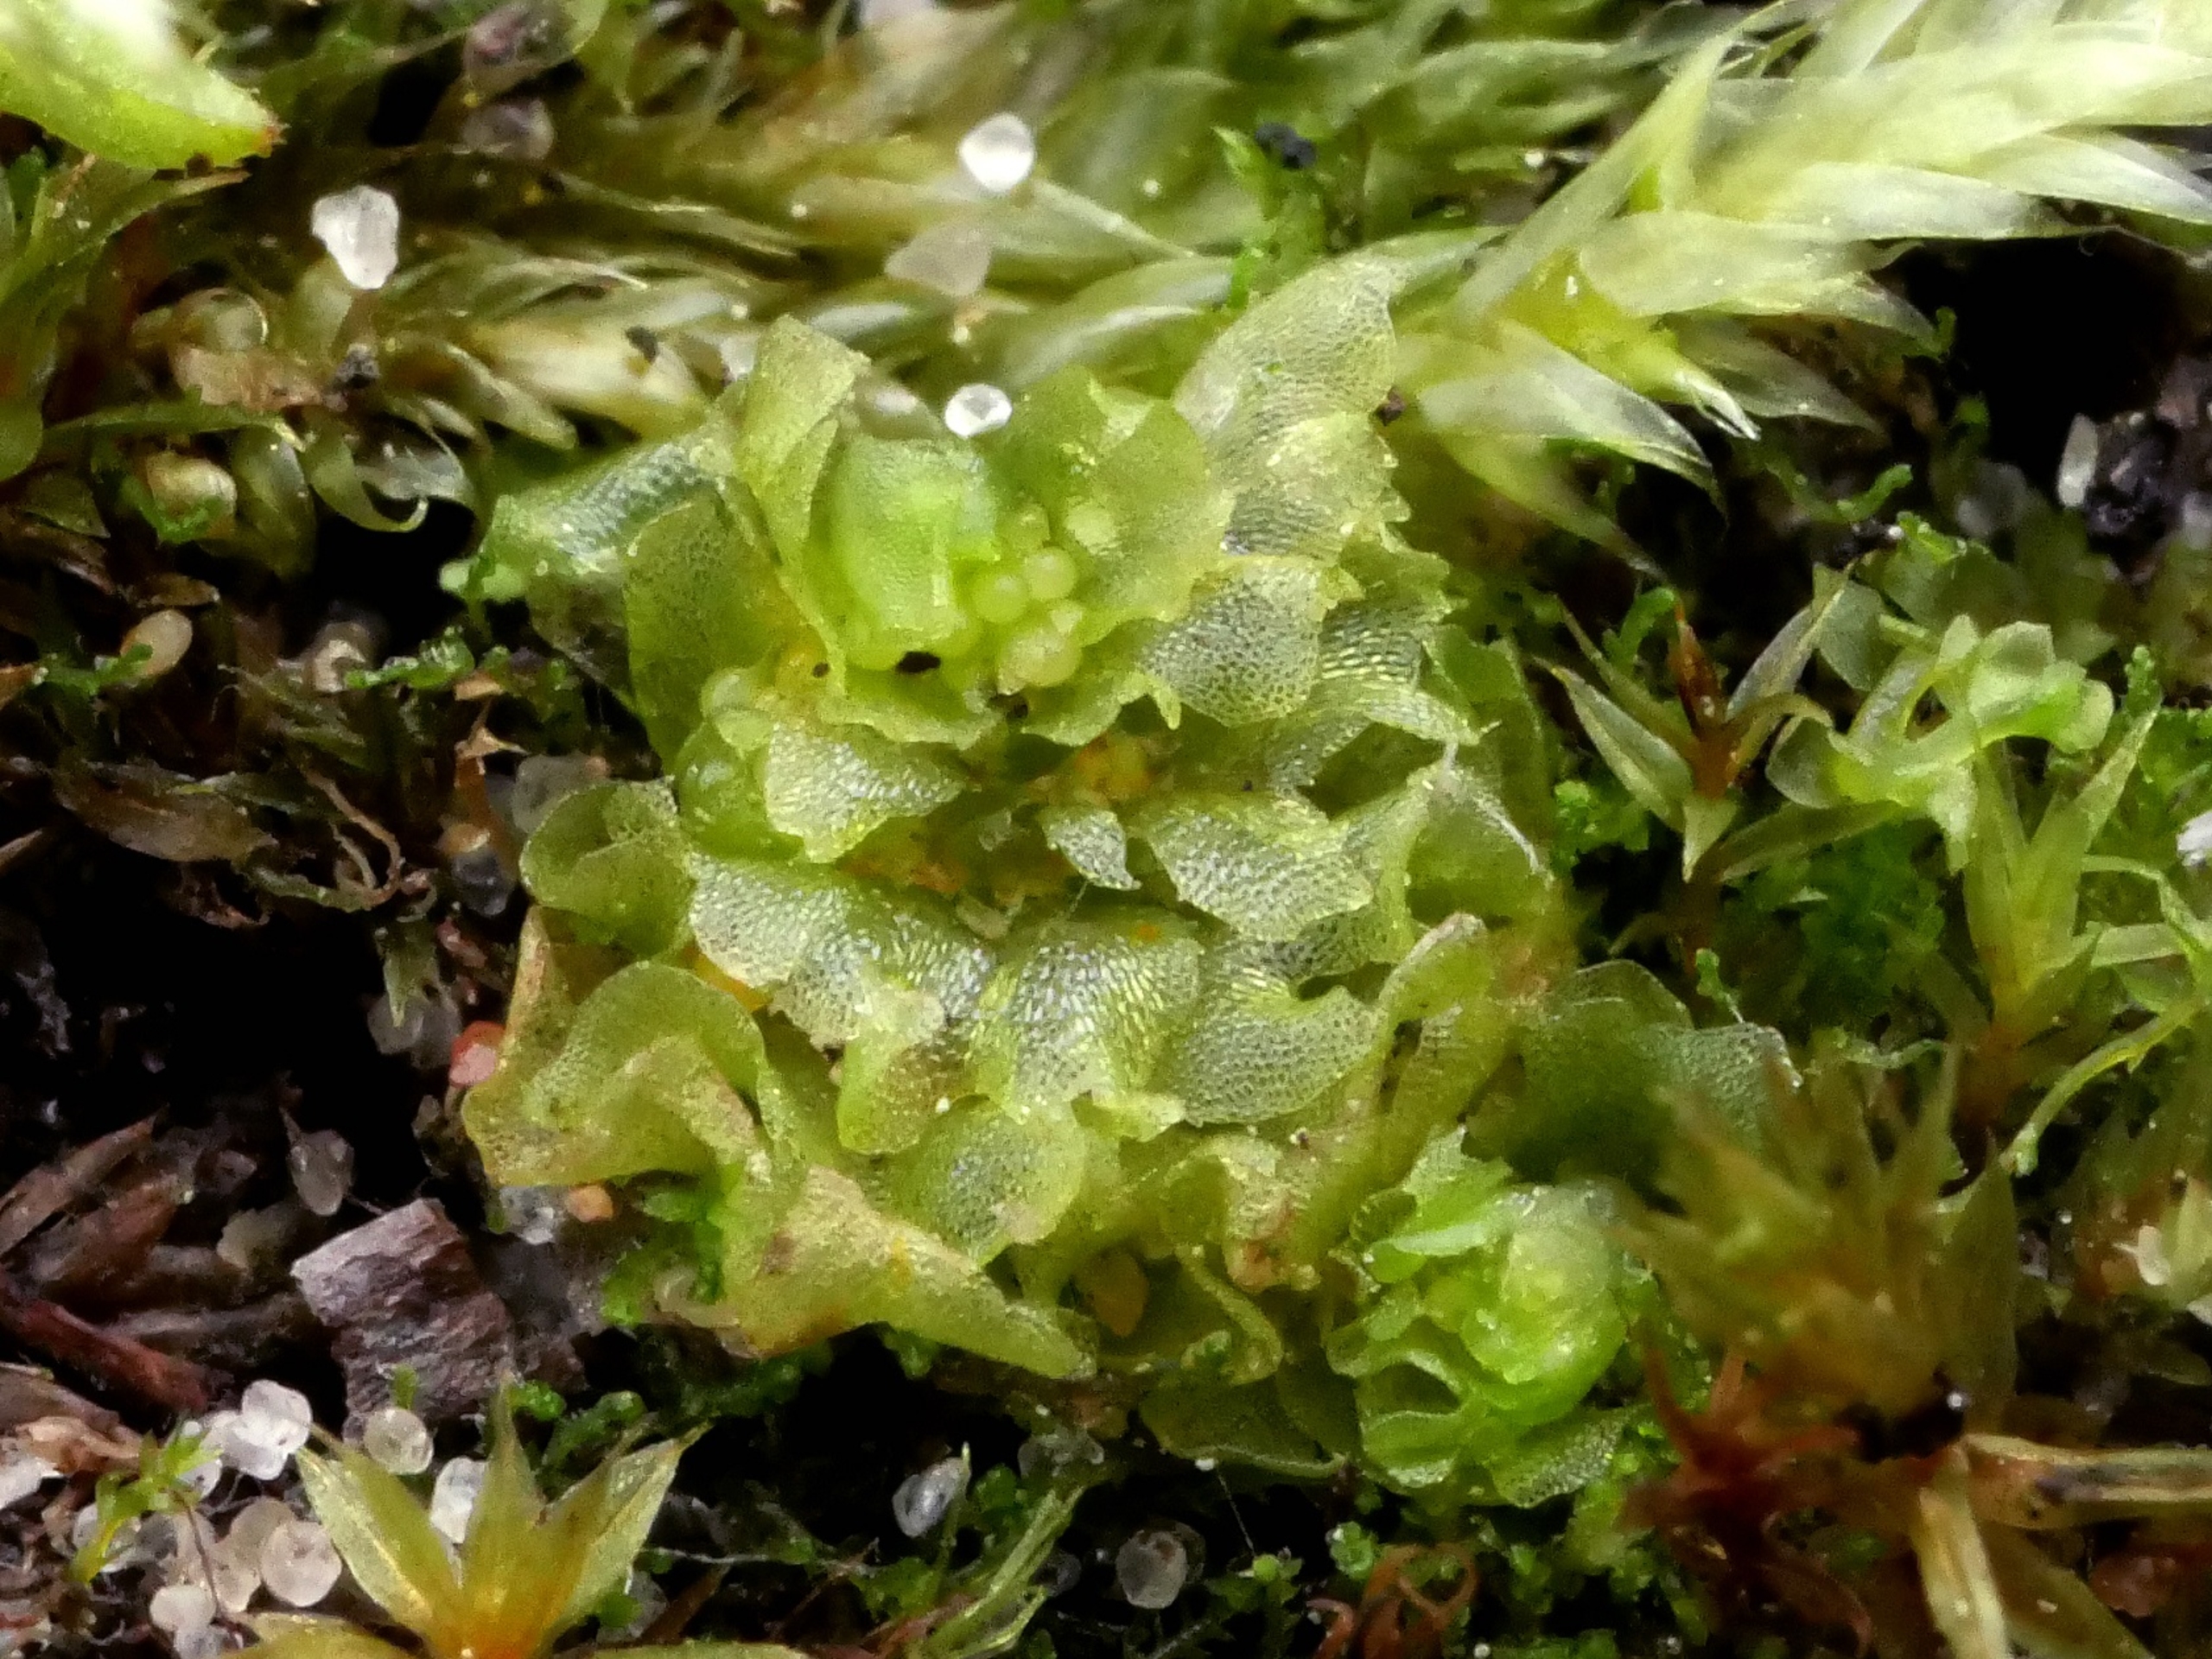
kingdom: Plantae
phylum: Marchantiophyta
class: Jungermanniopsida
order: Fossombroniales
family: Fossombroniaceae
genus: Fossombronia
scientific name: Fossombronia incurva
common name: Liden klokkesvøb
